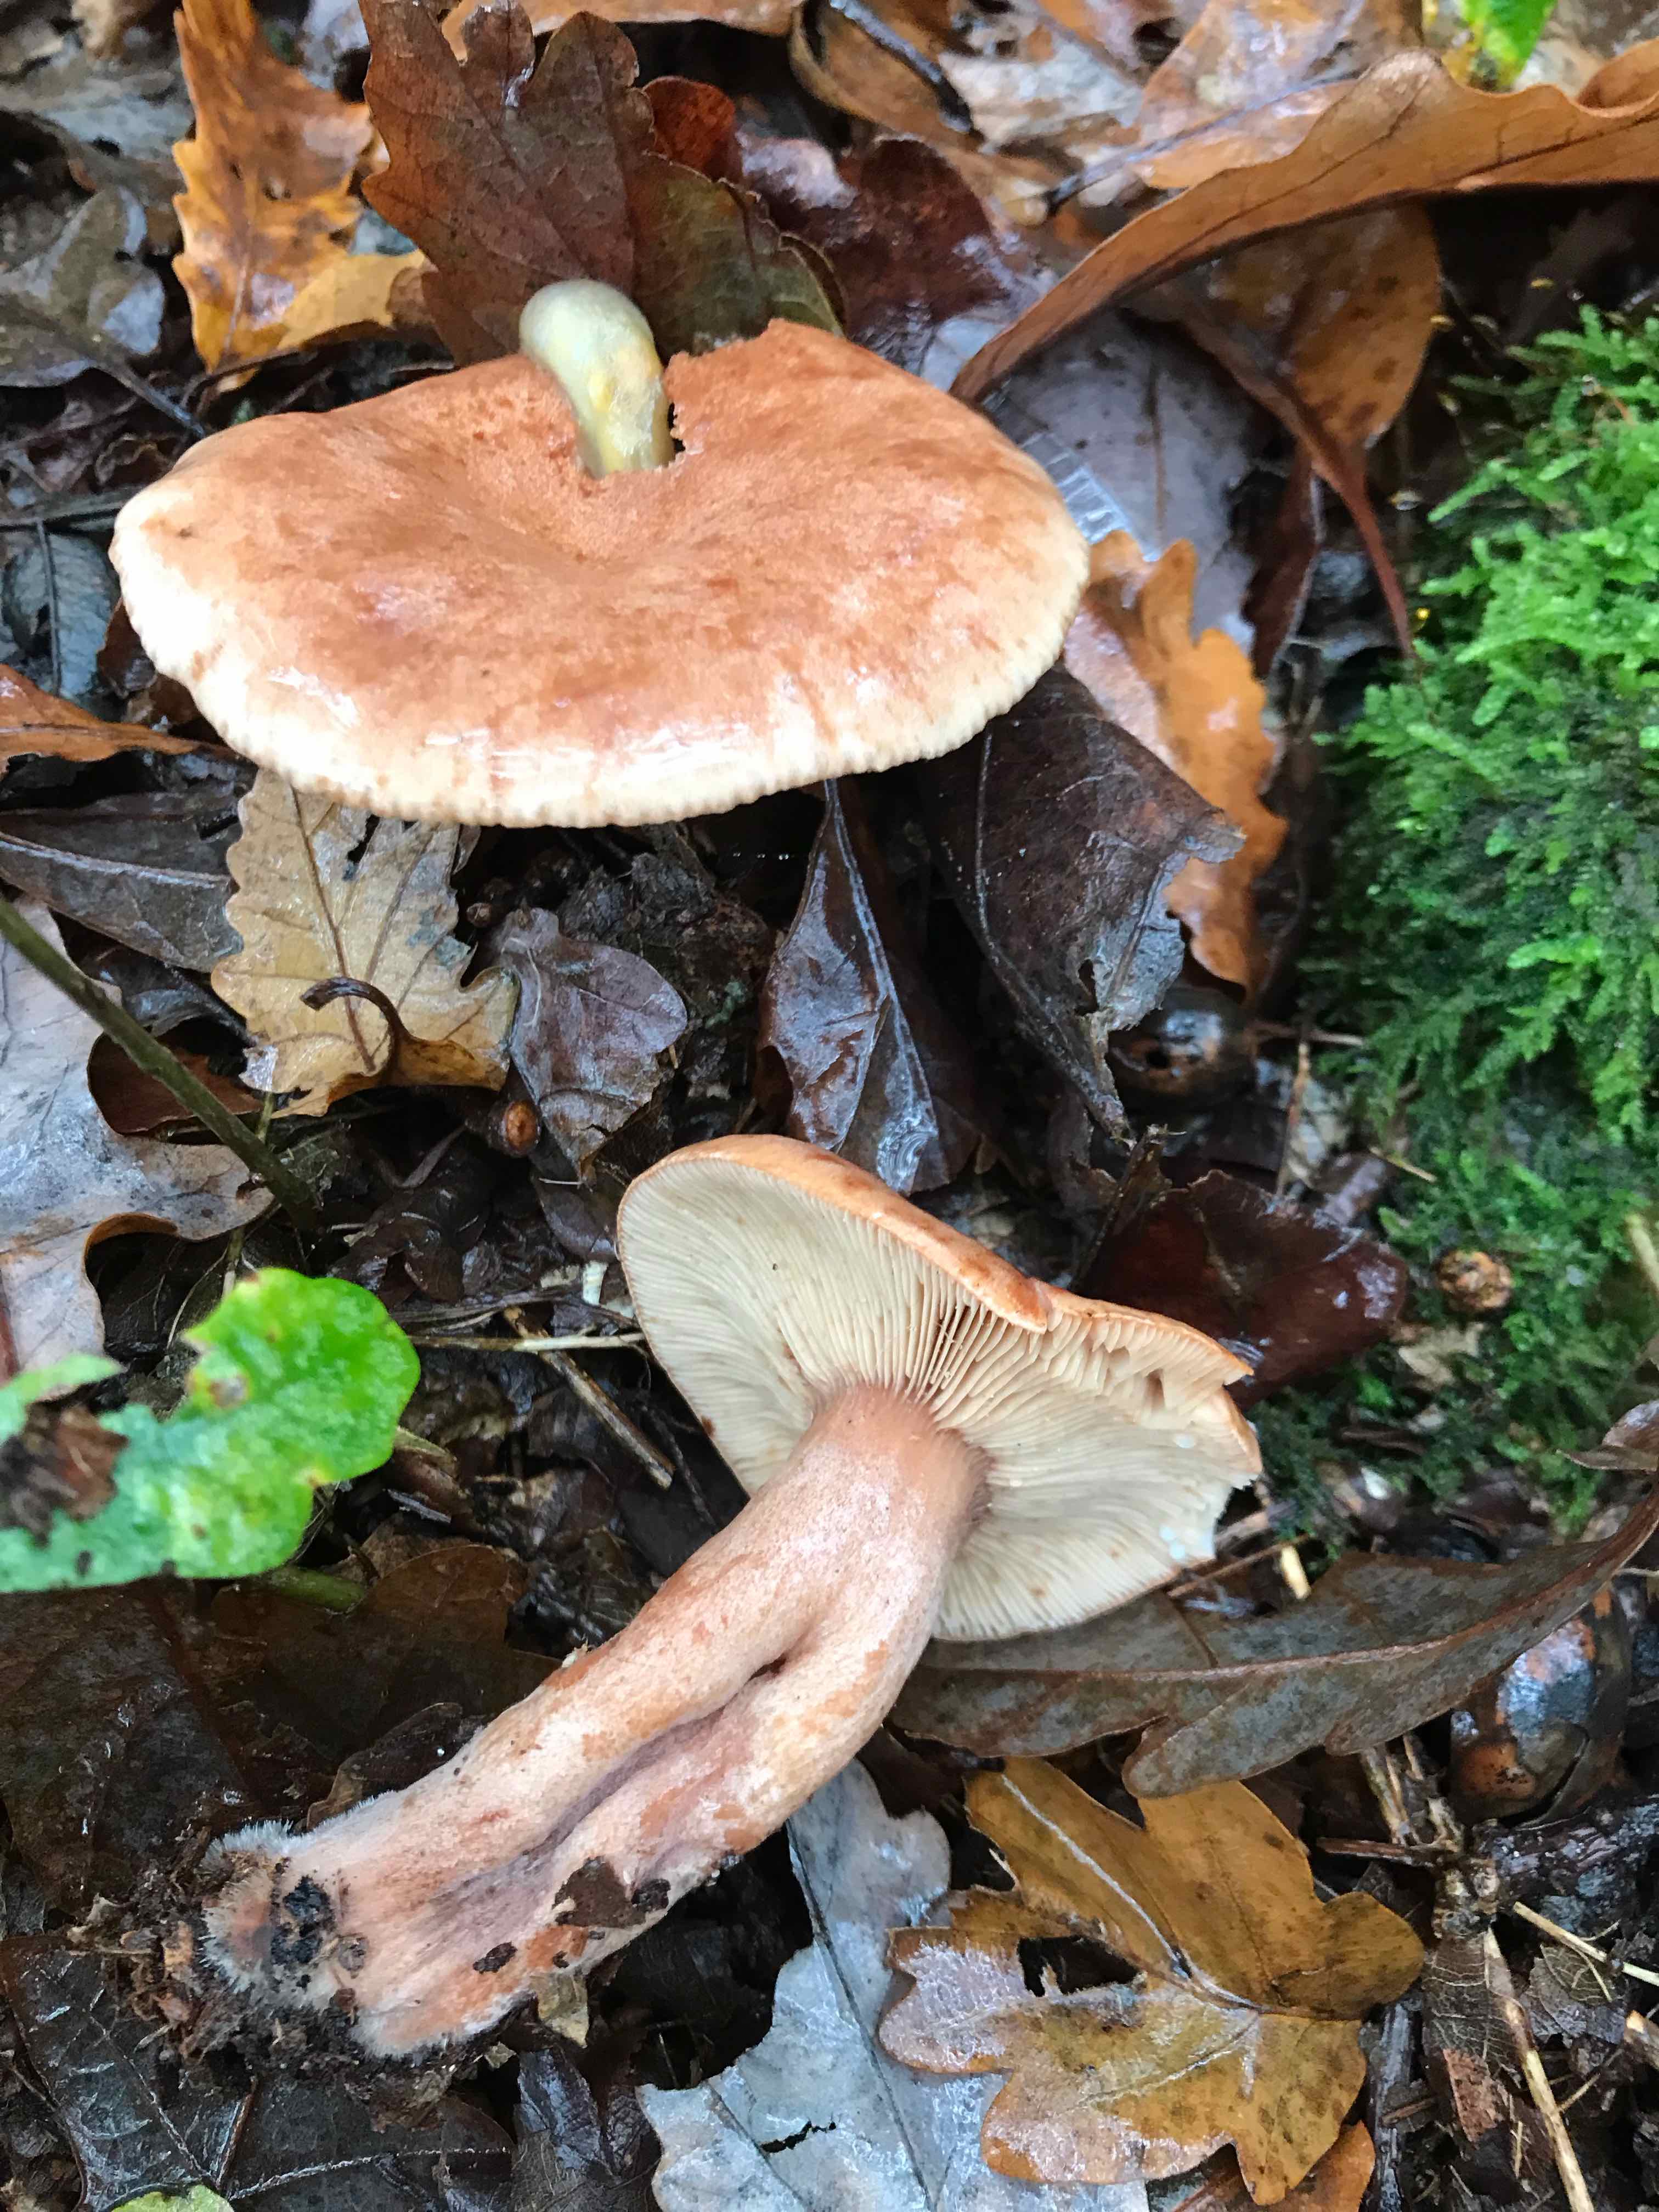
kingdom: Fungi
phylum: Basidiomycota
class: Agaricomycetes
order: Russulales
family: Russulaceae
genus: Lactarius
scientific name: Lactarius quietus
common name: ege-mælkehat
